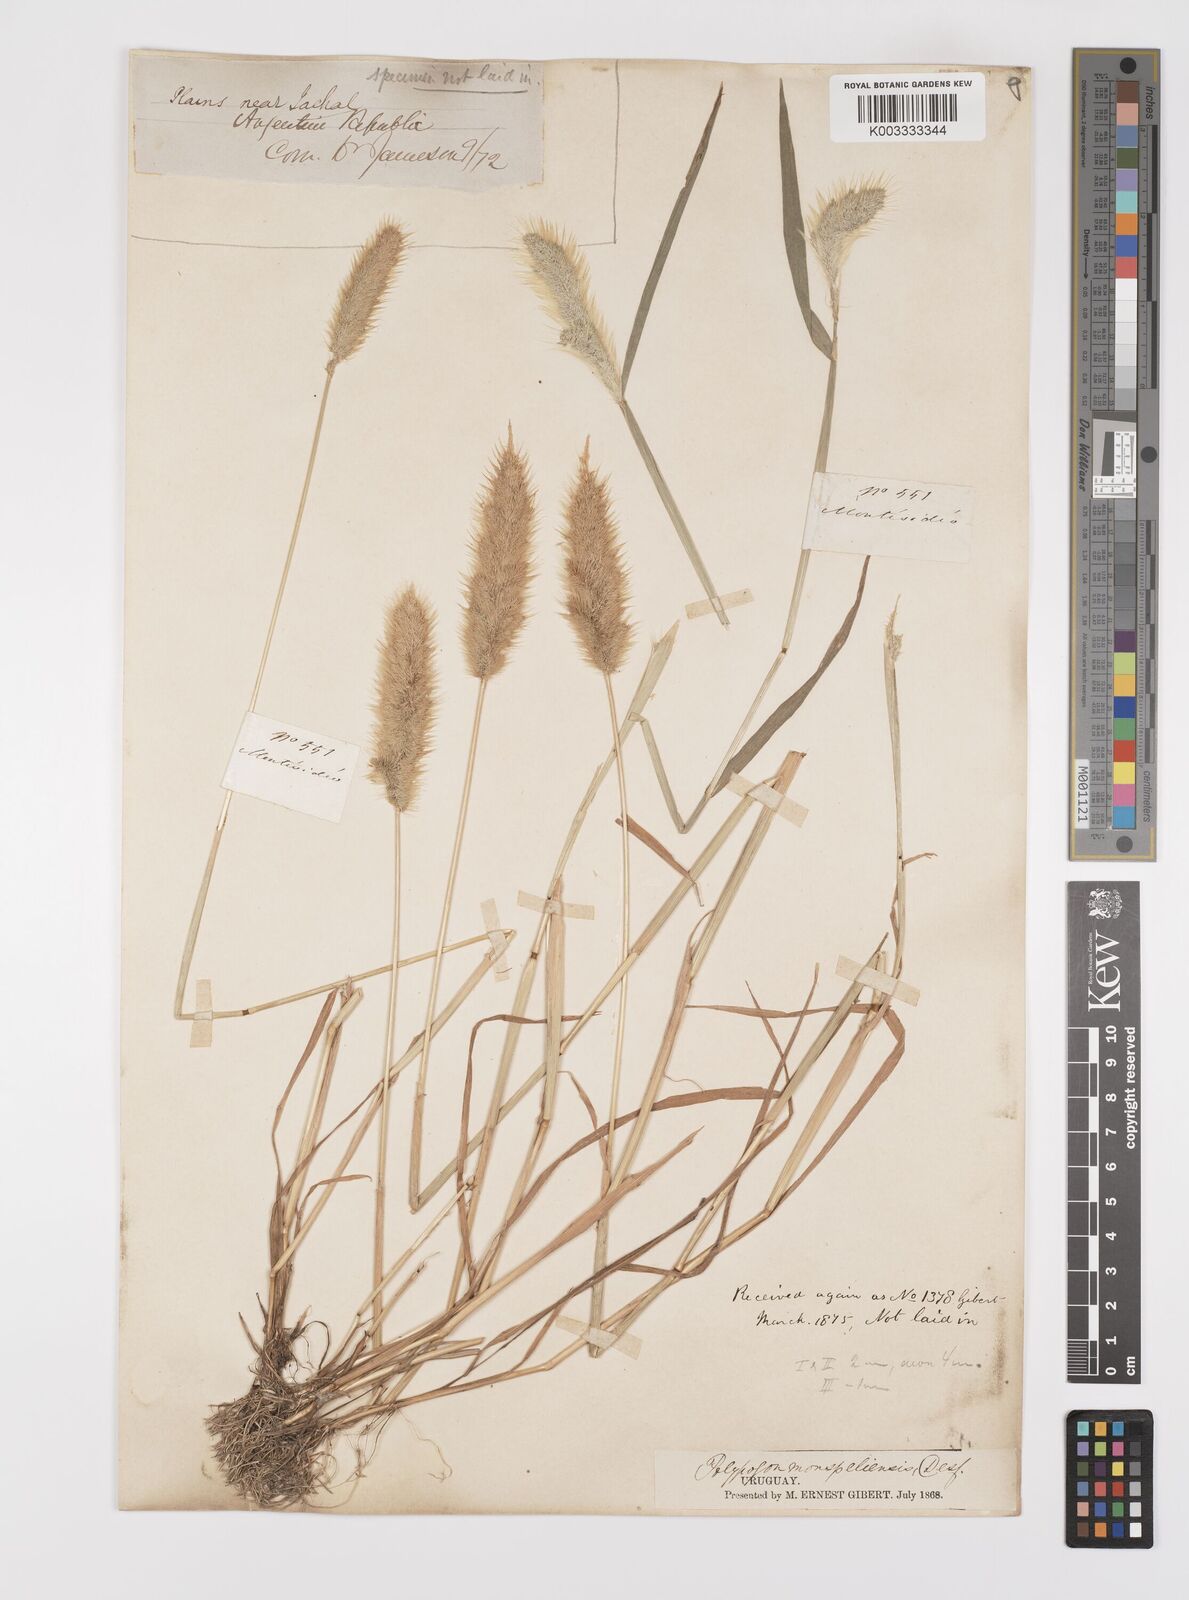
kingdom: Plantae
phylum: Tracheophyta
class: Liliopsida
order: Poales
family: Poaceae
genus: Polypogon
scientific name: Polypogon monspeliensis
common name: Annual rabbitsfoot grass
